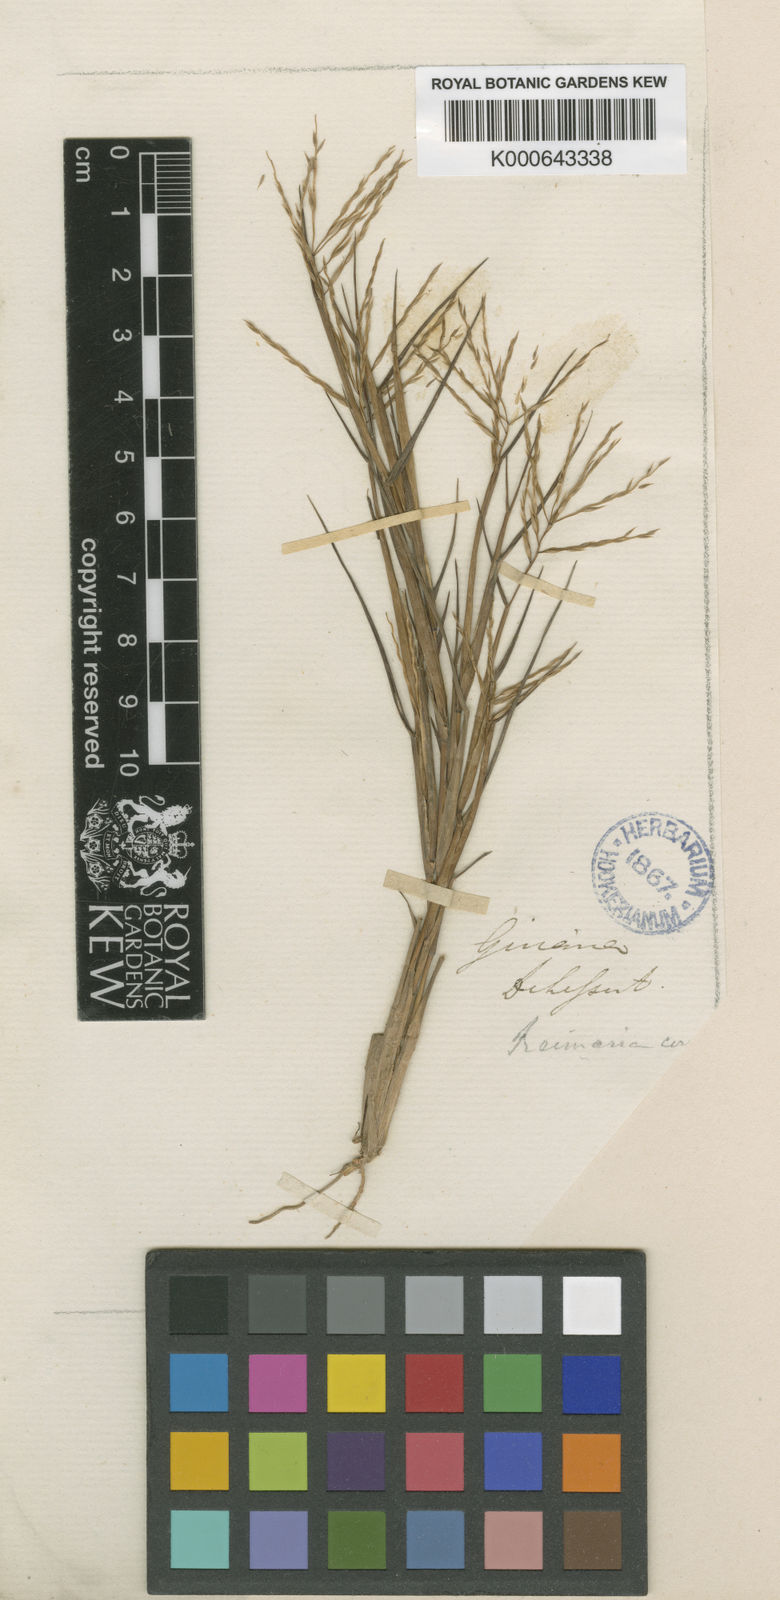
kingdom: Plantae
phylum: Tracheophyta
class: Liliopsida
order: Poales
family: Poaceae
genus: Paspalum
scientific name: Paspalum stagnophilum
